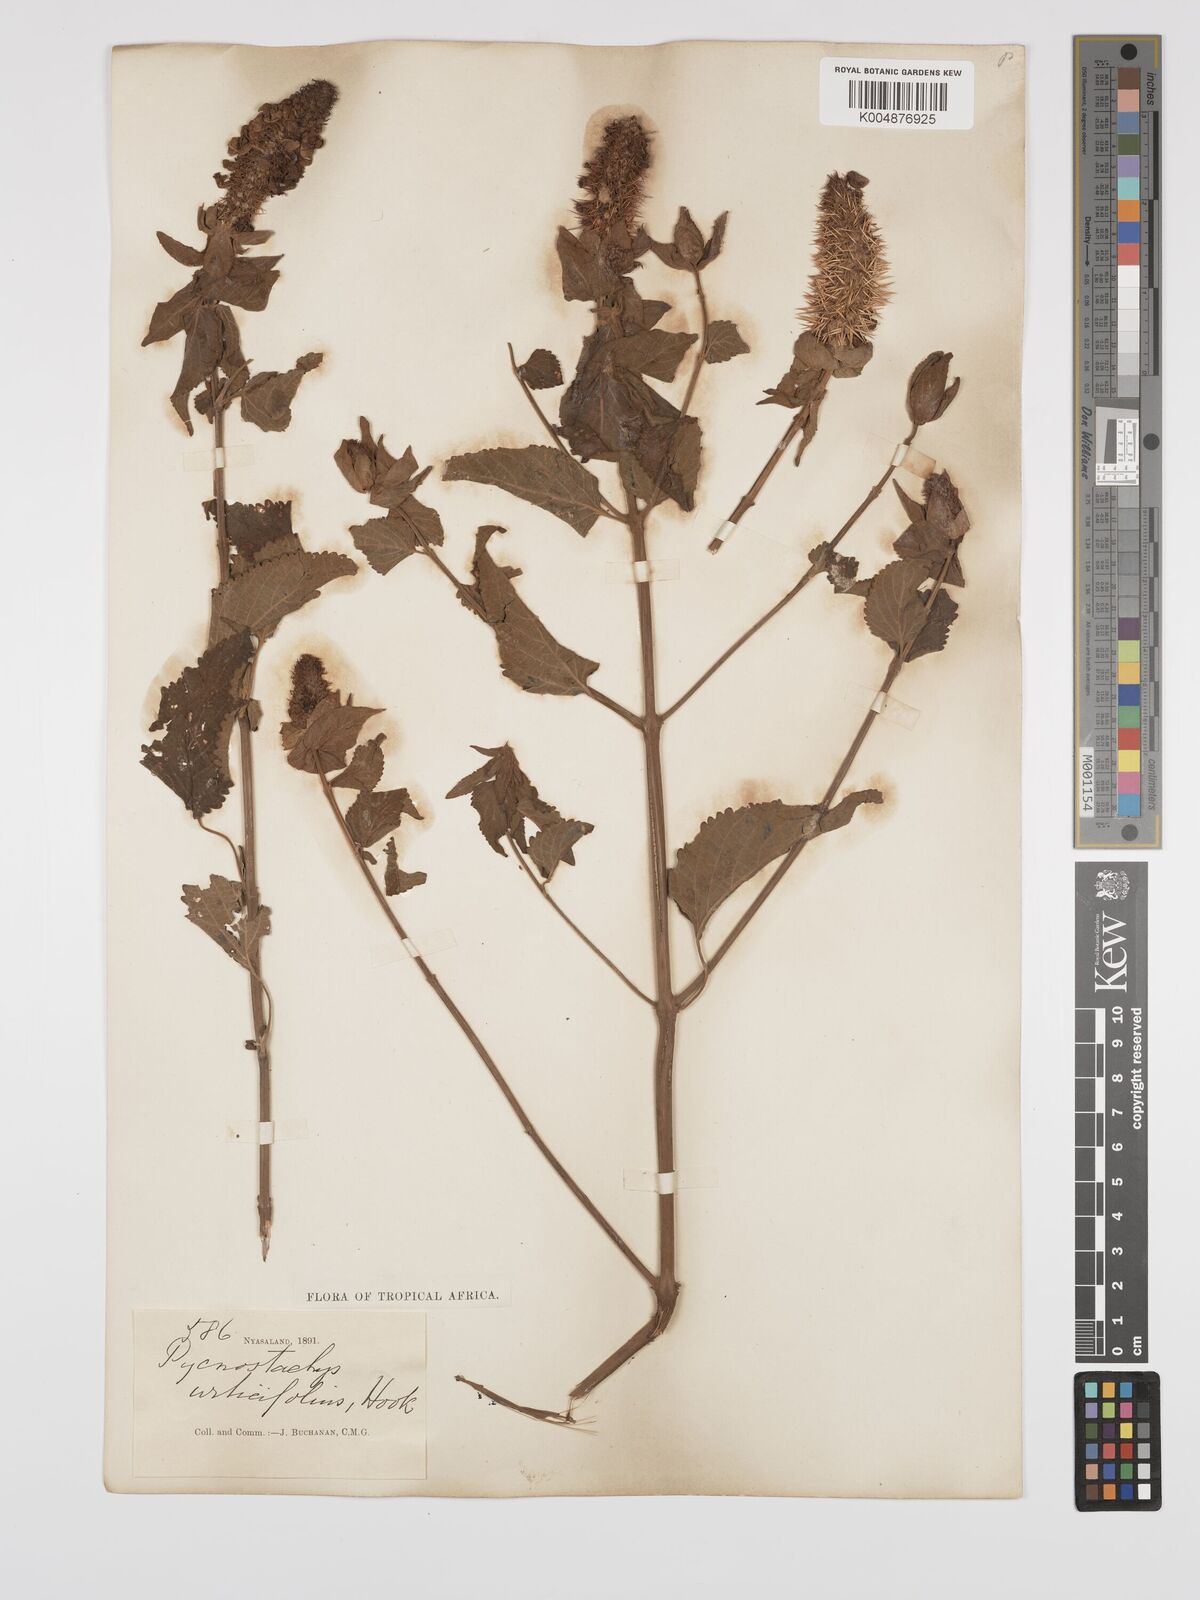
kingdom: Plantae
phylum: Tracheophyta
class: Magnoliopsida
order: Lamiales
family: Lamiaceae
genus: Coleus
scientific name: Coleus livingstonei
